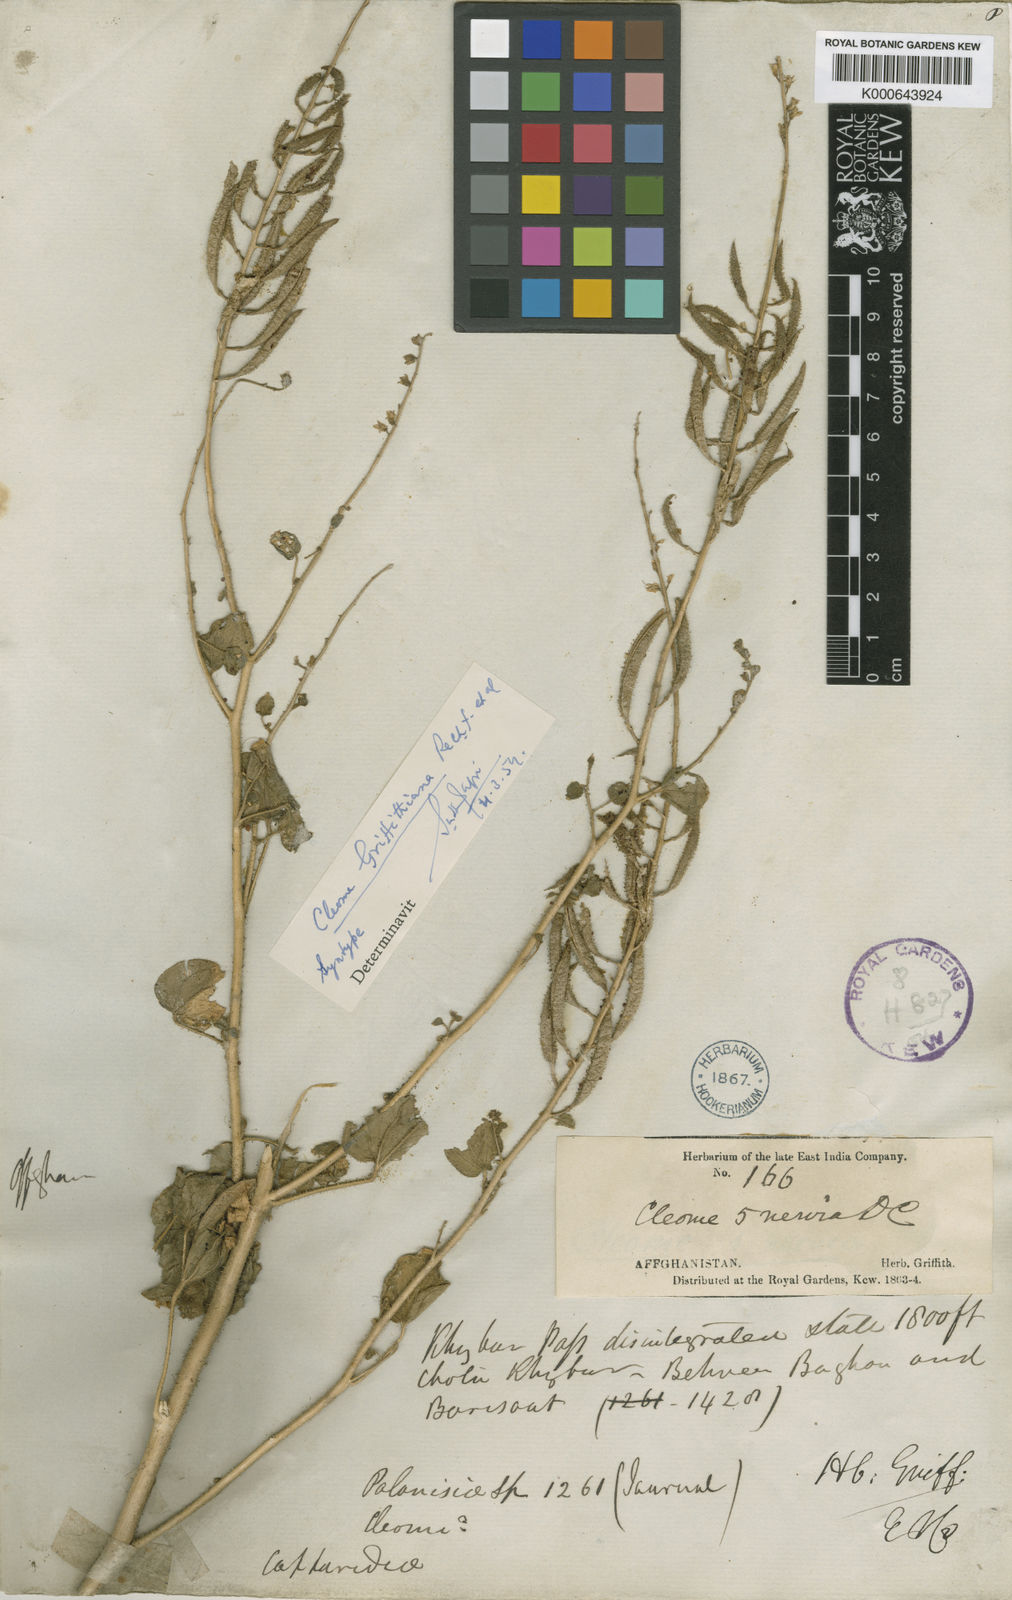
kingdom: Plantae
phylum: Tracheophyta
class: Magnoliopsida
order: Brassicales
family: Cleomaceae
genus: Rorida
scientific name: Rorida quinquenervia
